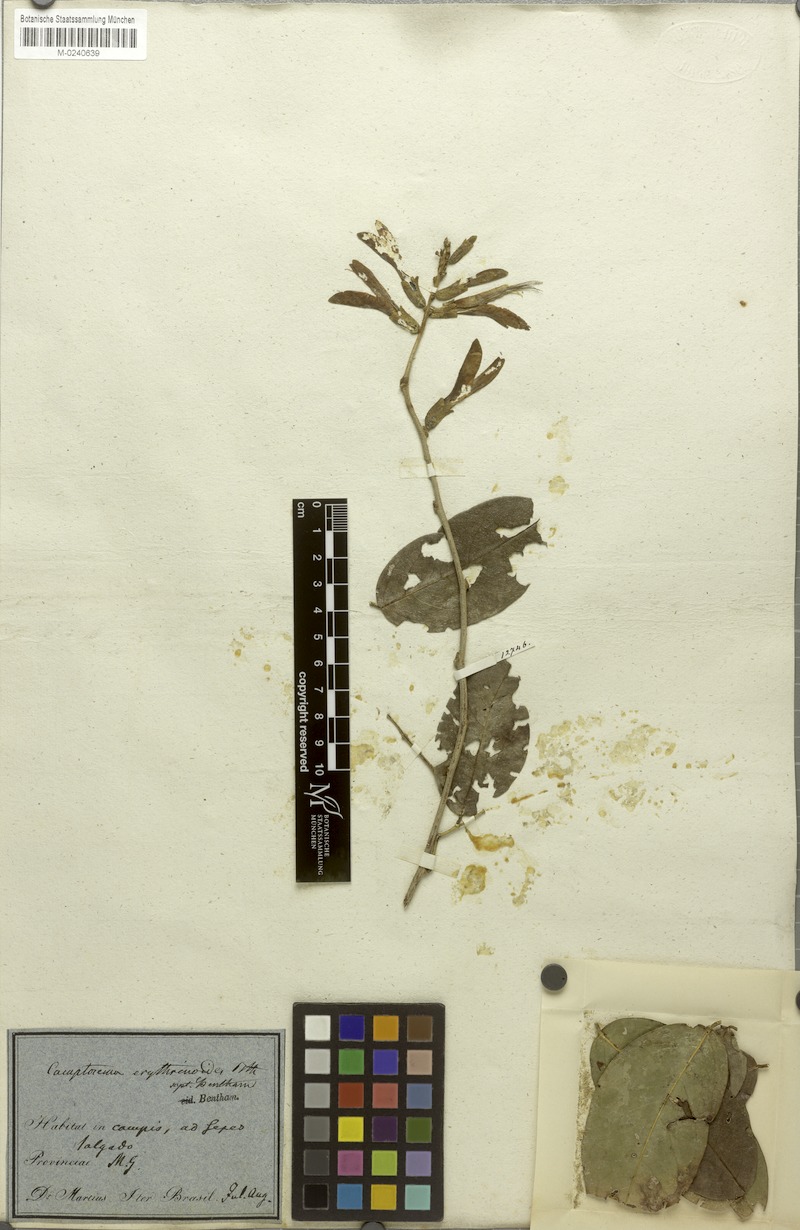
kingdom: Plantae
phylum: Tracheophyta
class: Magnoliopsida
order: Fabales
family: Fabaceae
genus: Cratylia
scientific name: Cratylia isopetala
